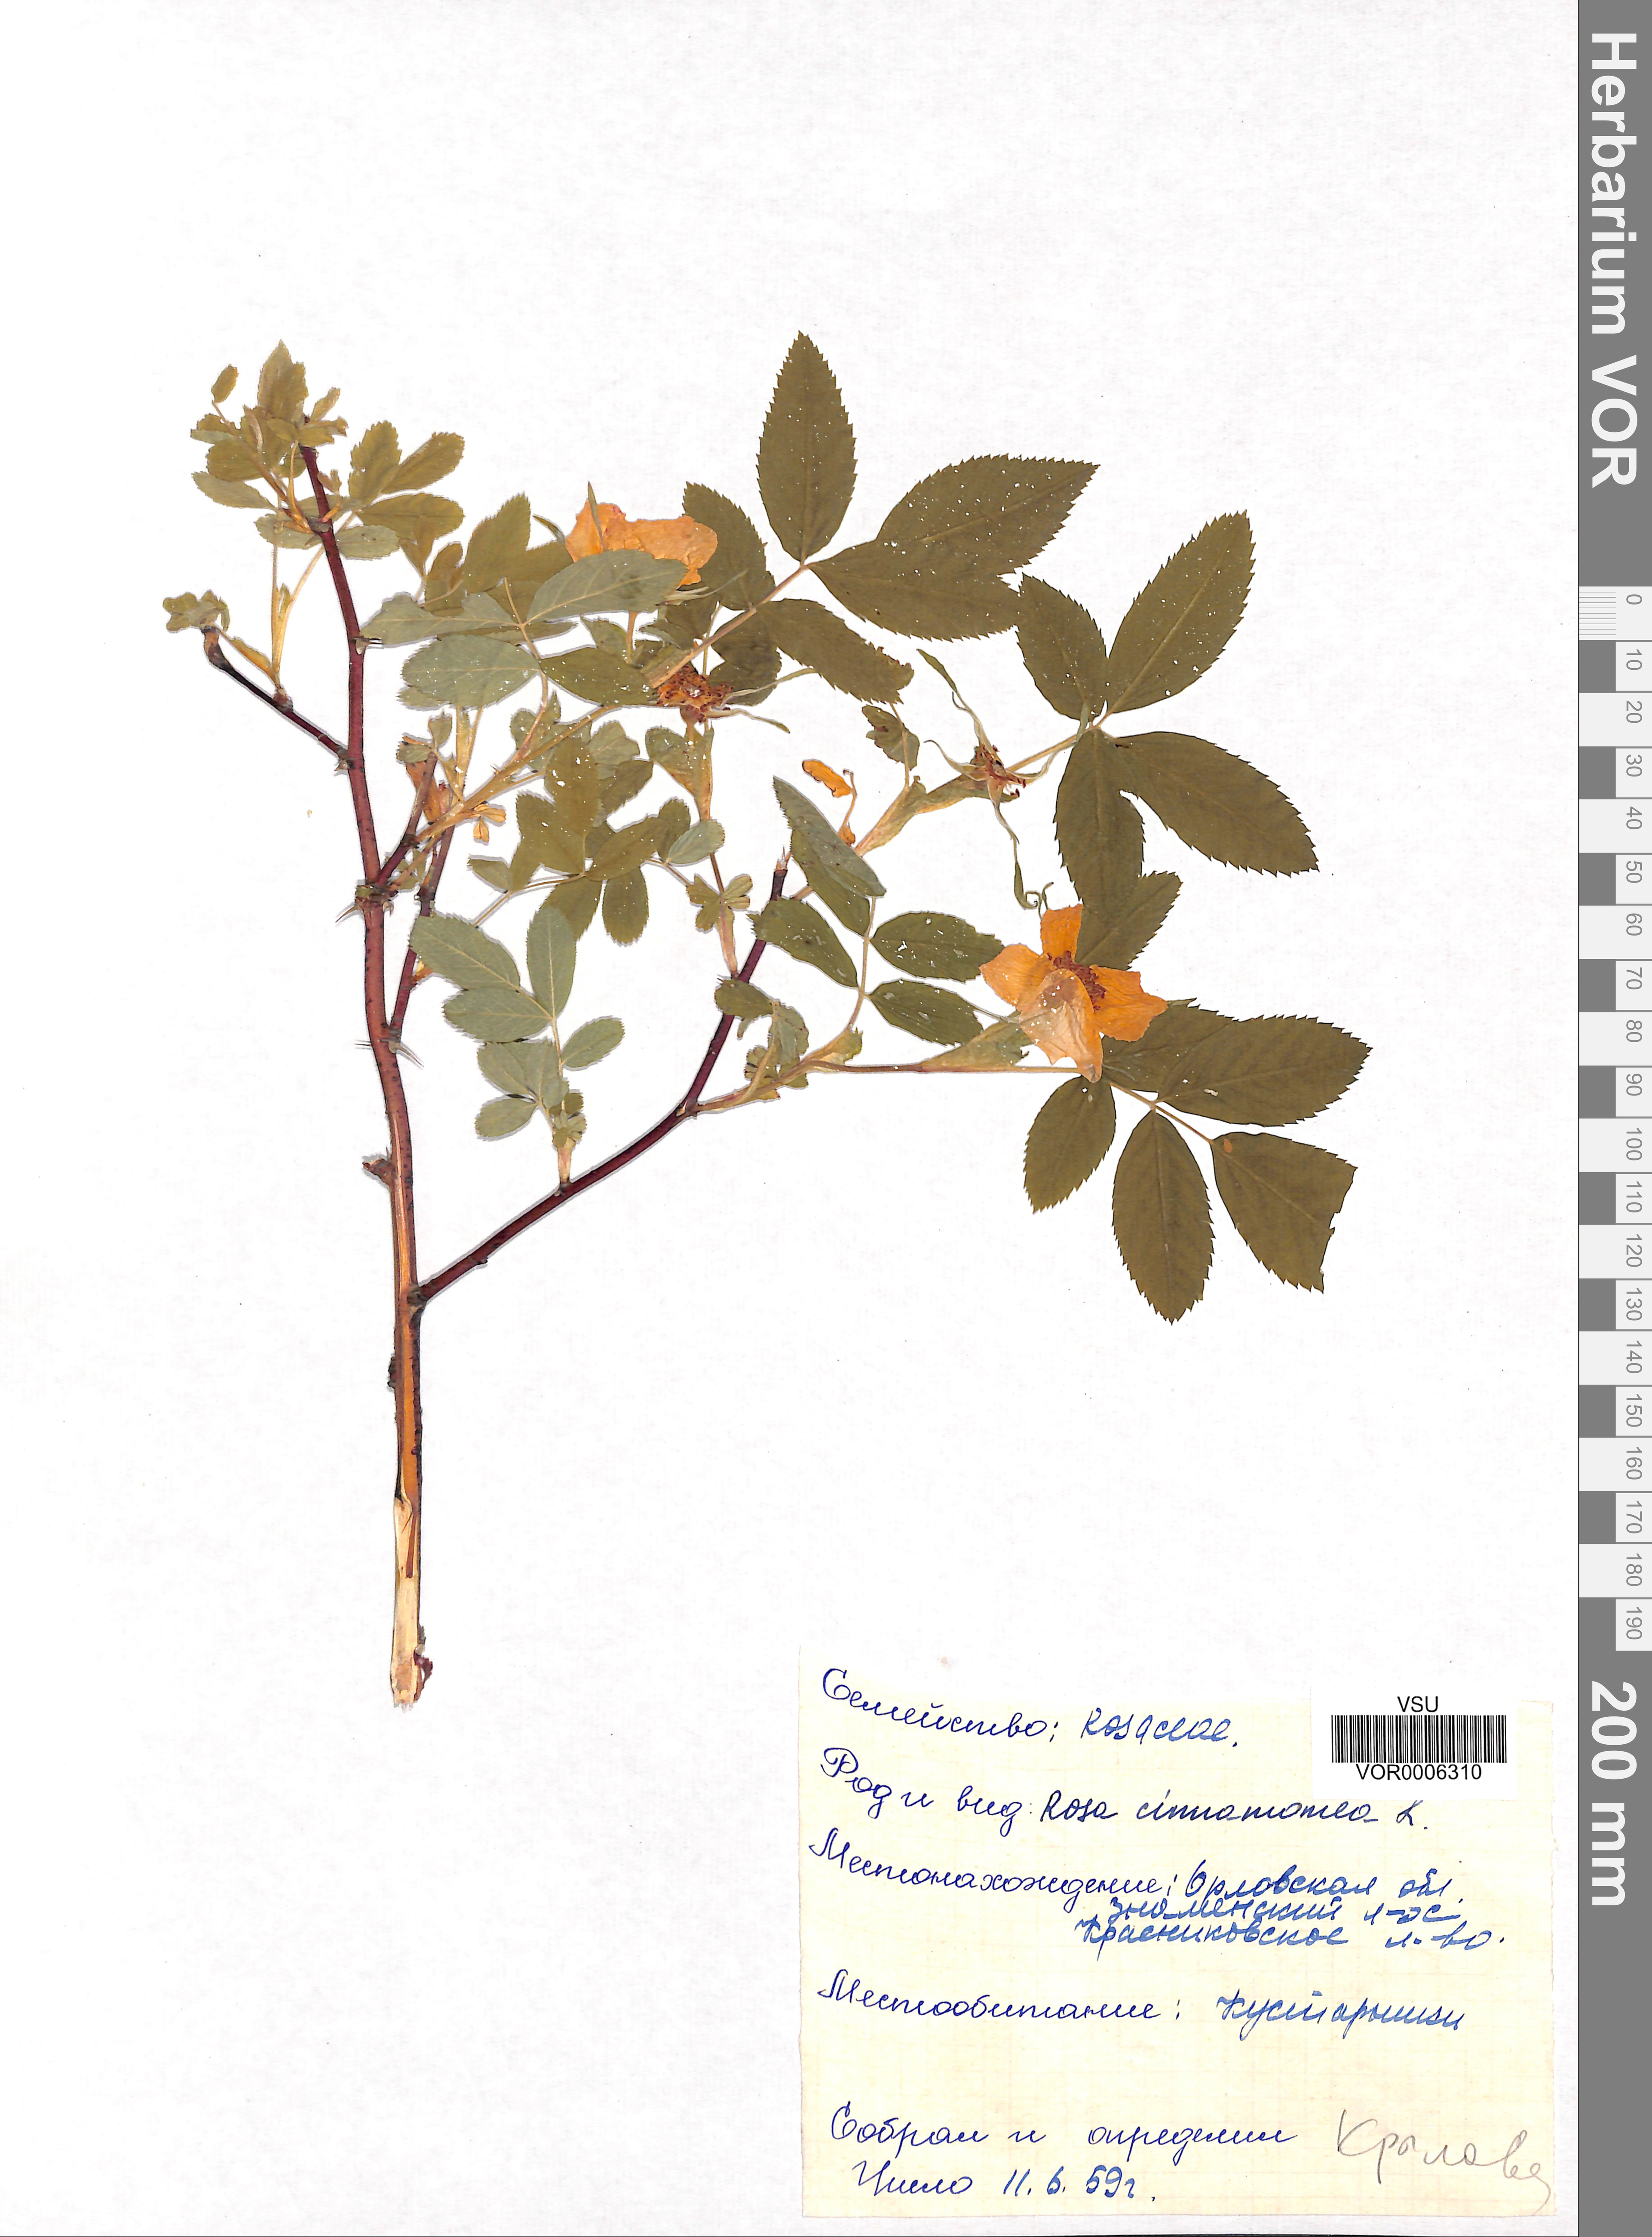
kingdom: Plantae
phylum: Tracheophyta
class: Magnoliopsida
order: Rosales
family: Rosaceae
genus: Rosa
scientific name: Rosa majalis
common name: Cinnamon rose
